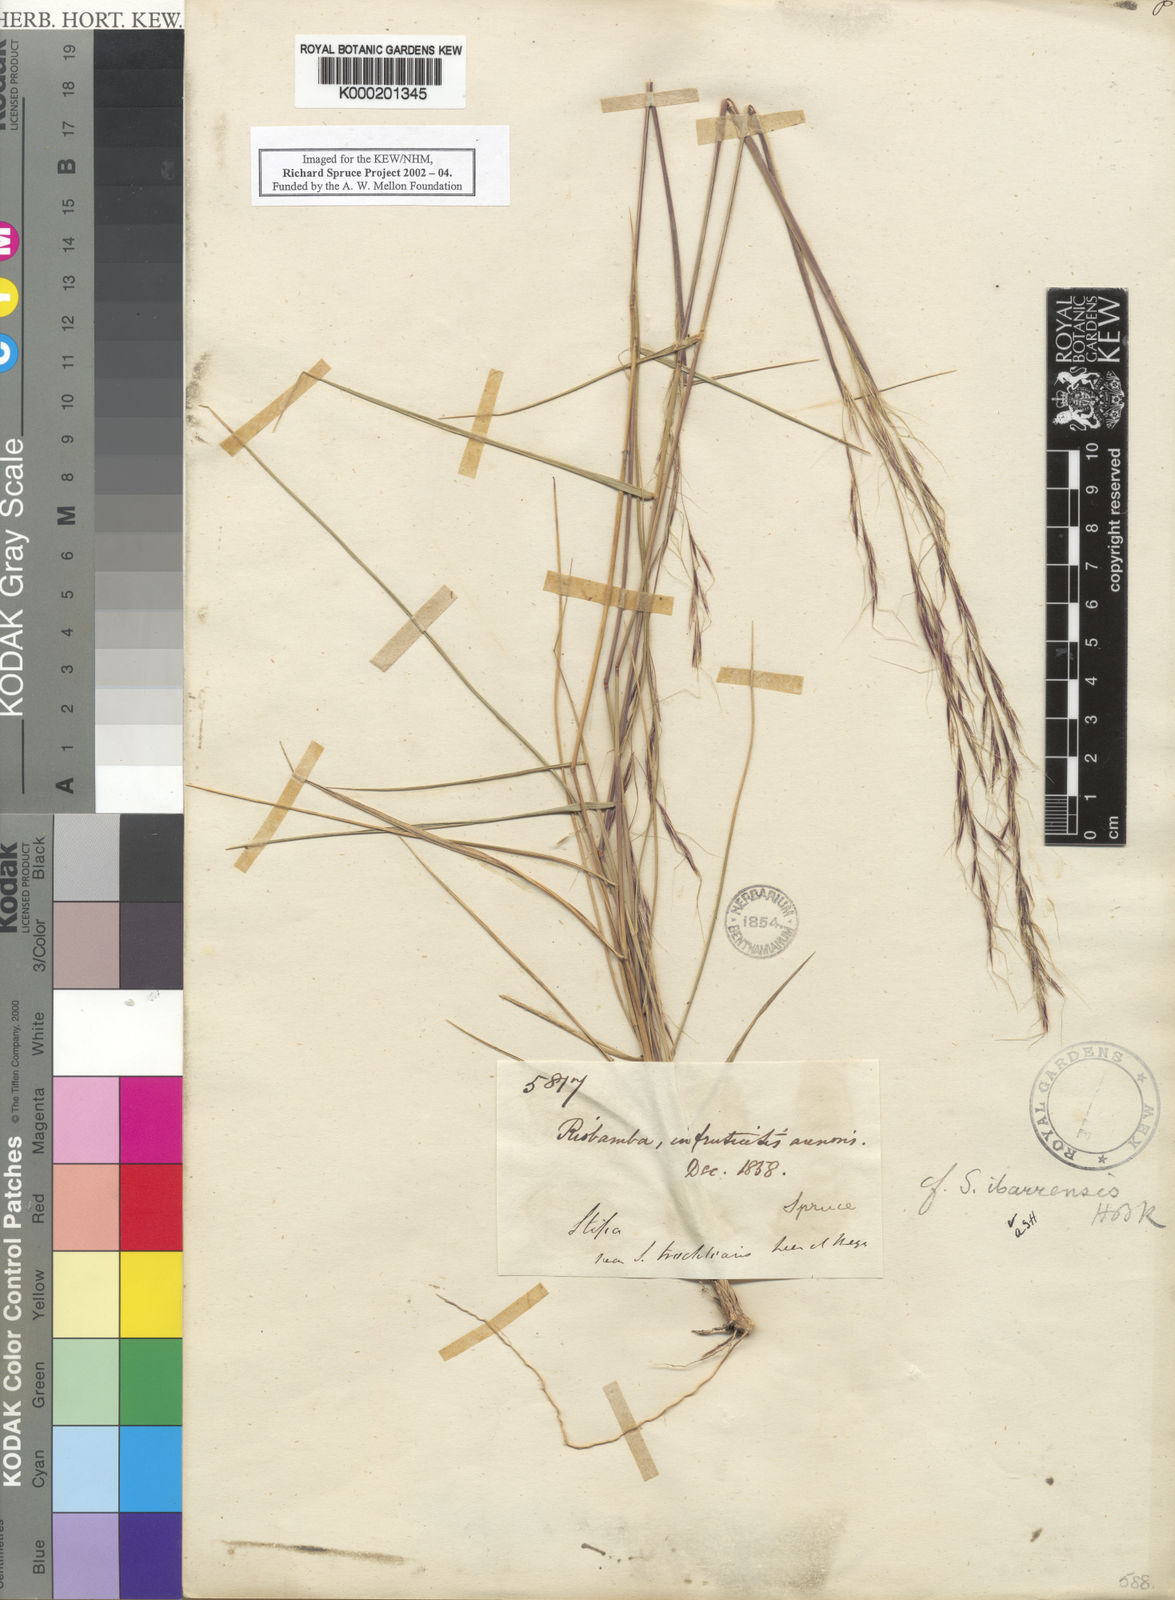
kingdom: Plantae
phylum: Tracheophyta
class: Liliopsida
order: Poales
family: Poaceae
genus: Nassella
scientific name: Nassella ibarrensis
